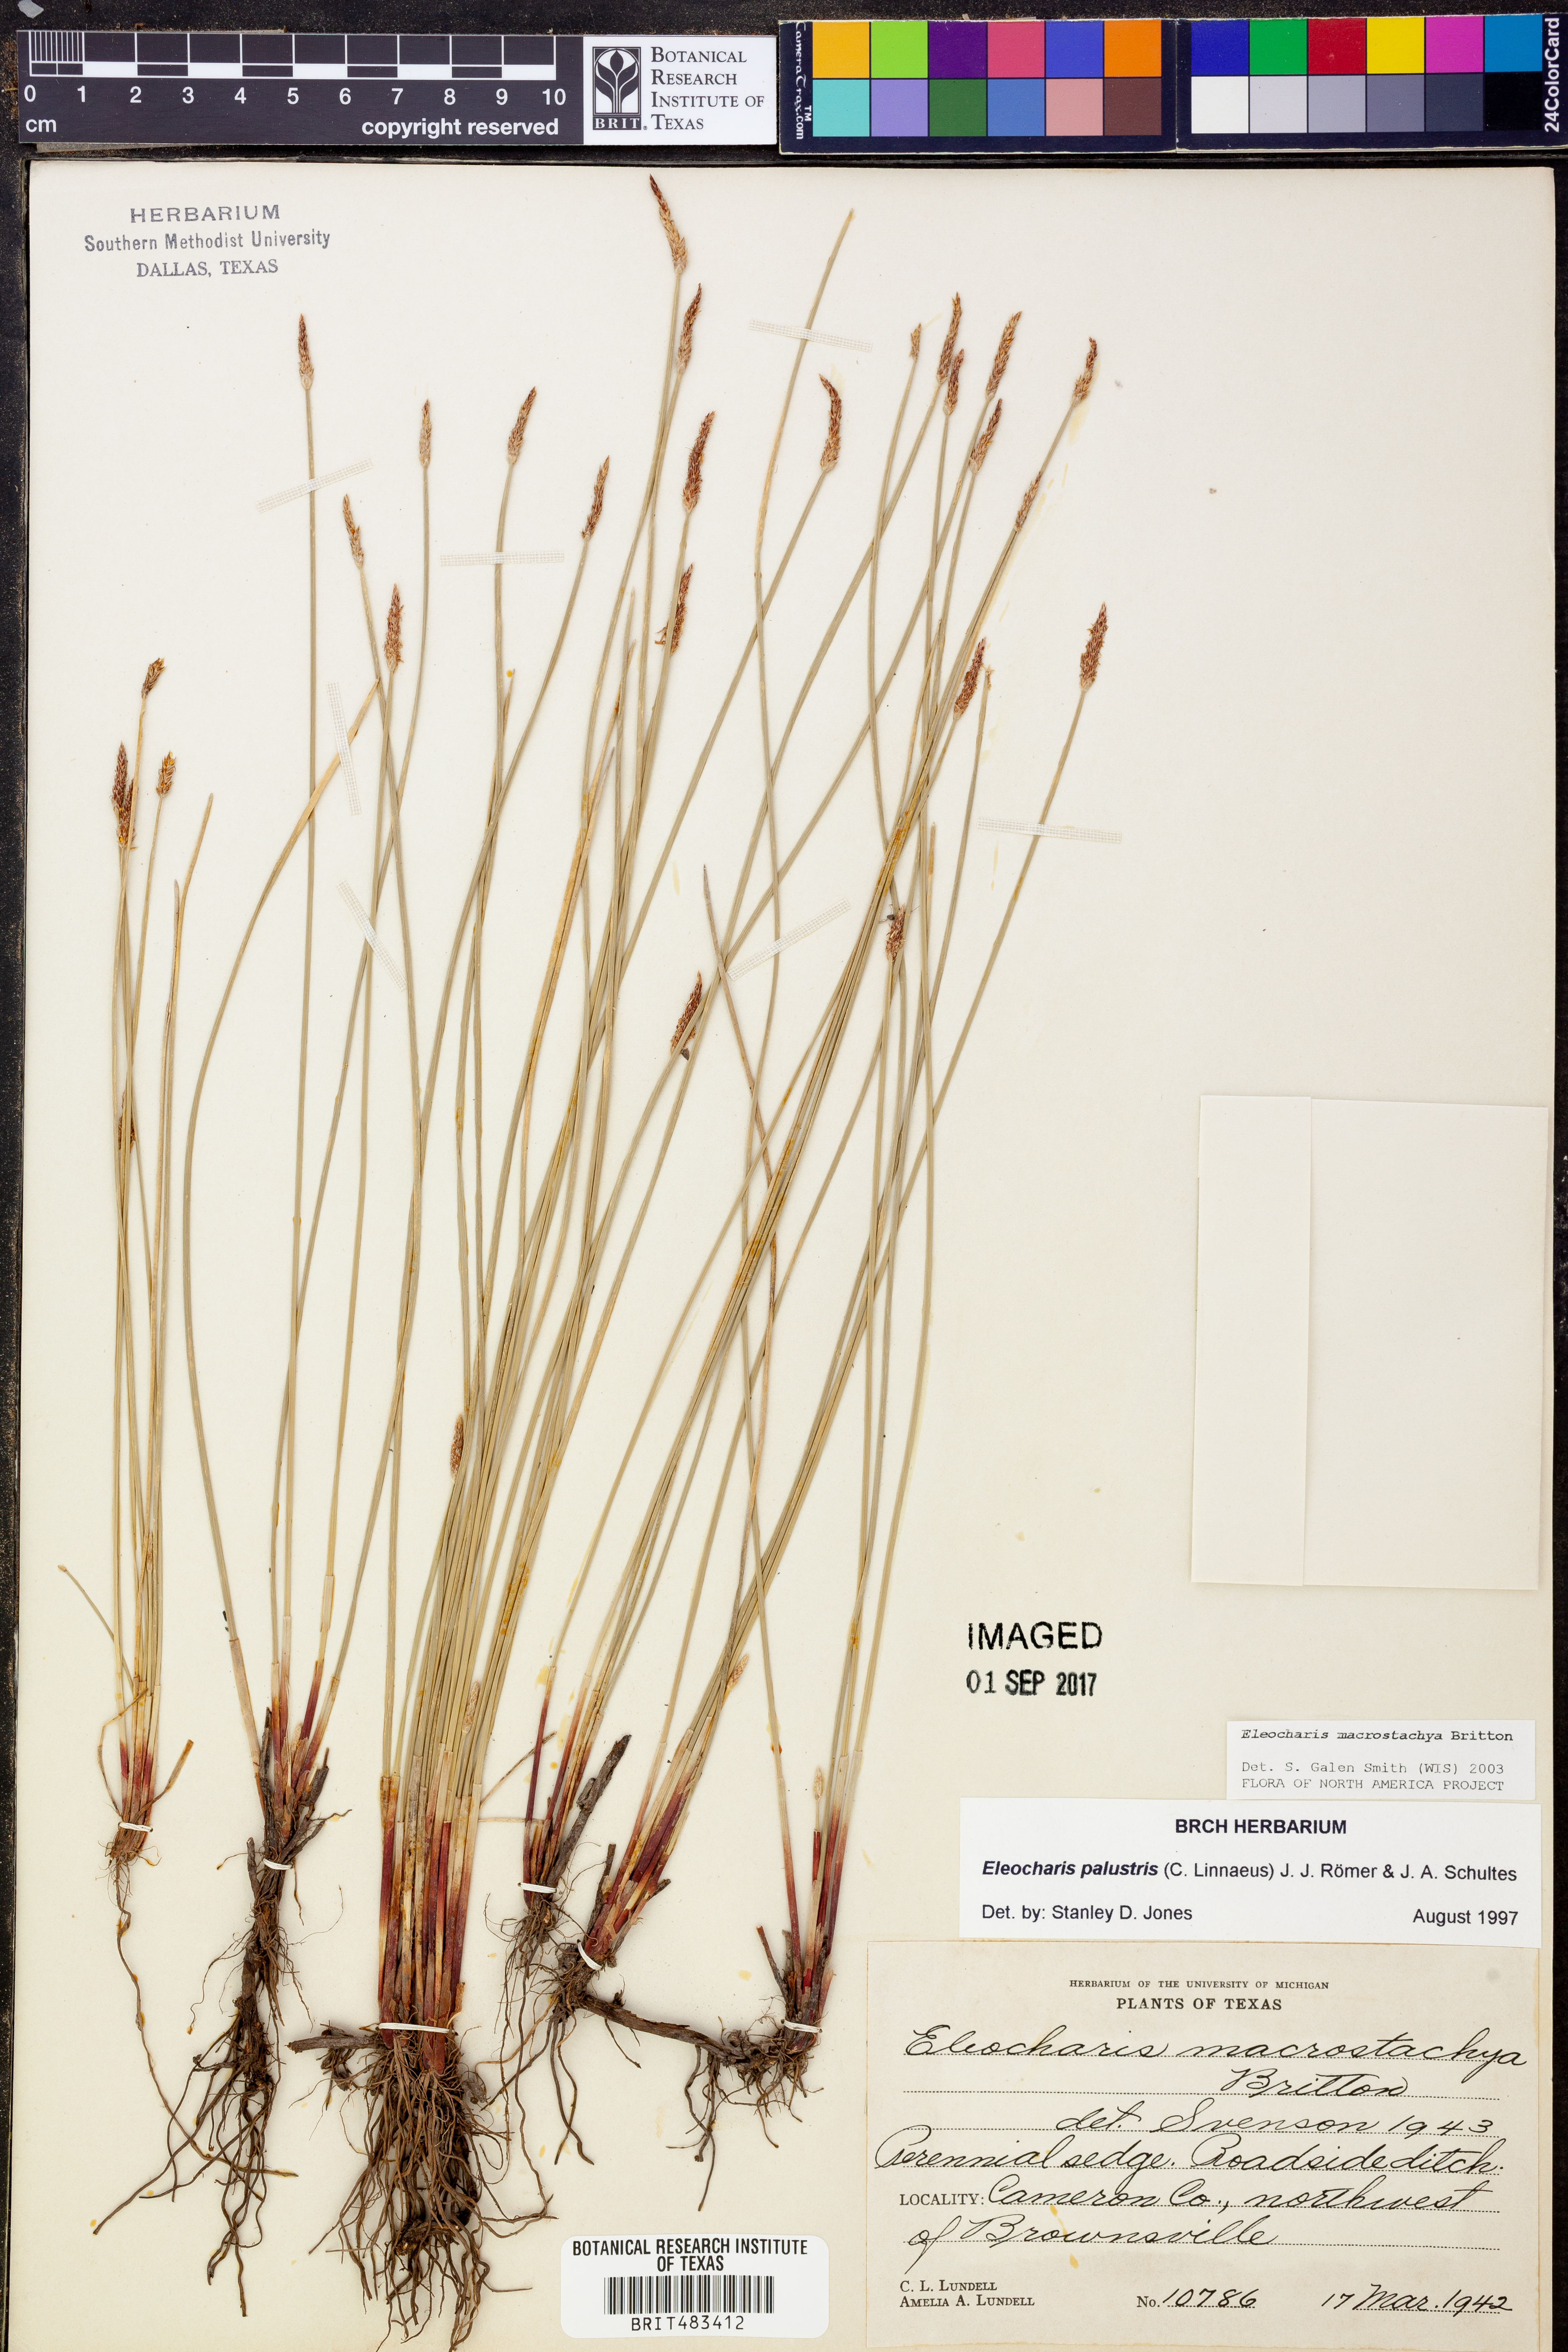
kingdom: Plantae
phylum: Tracheophyta
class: Liliopsida
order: Poales
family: Cyperaceae
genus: Eleocharis
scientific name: Eleocharis macrostachya
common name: Pale spikerush
